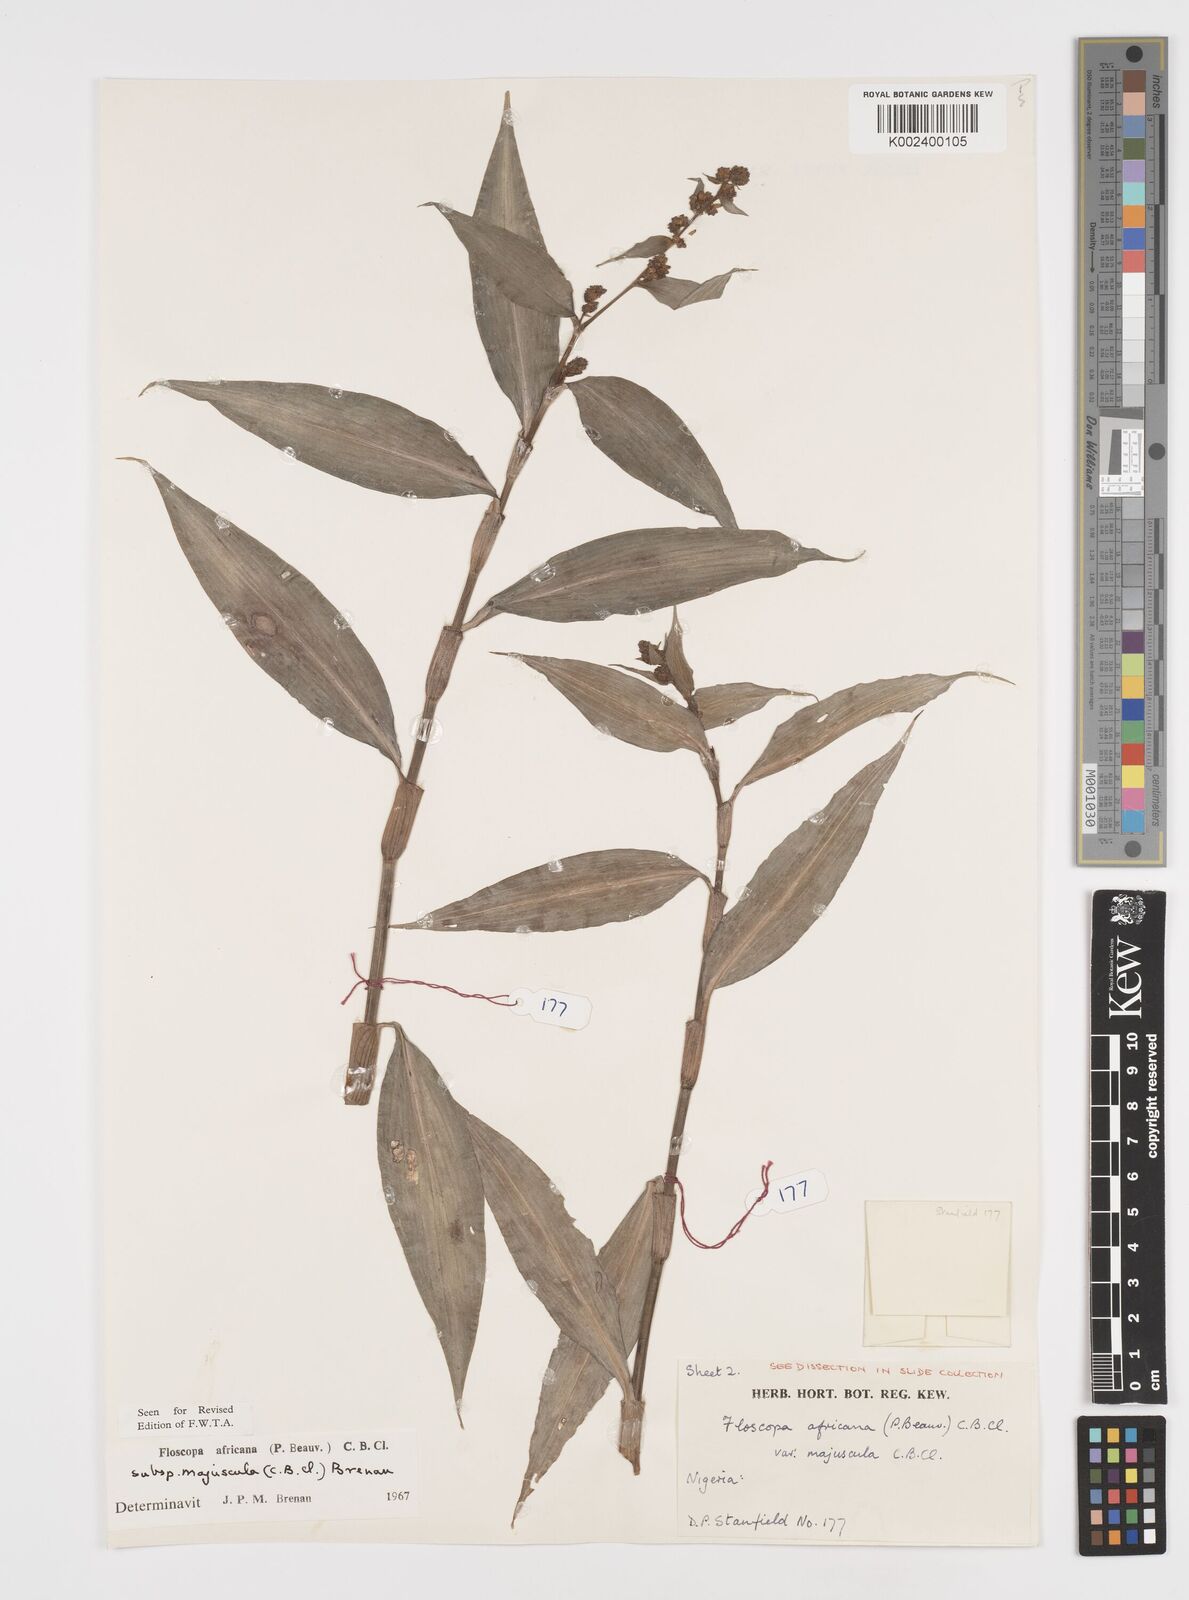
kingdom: Plantae
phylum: Tracheophyta
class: Liliopsida
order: Commelinales
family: Commelinaceae
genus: Floscopa
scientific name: Floscopa africana
